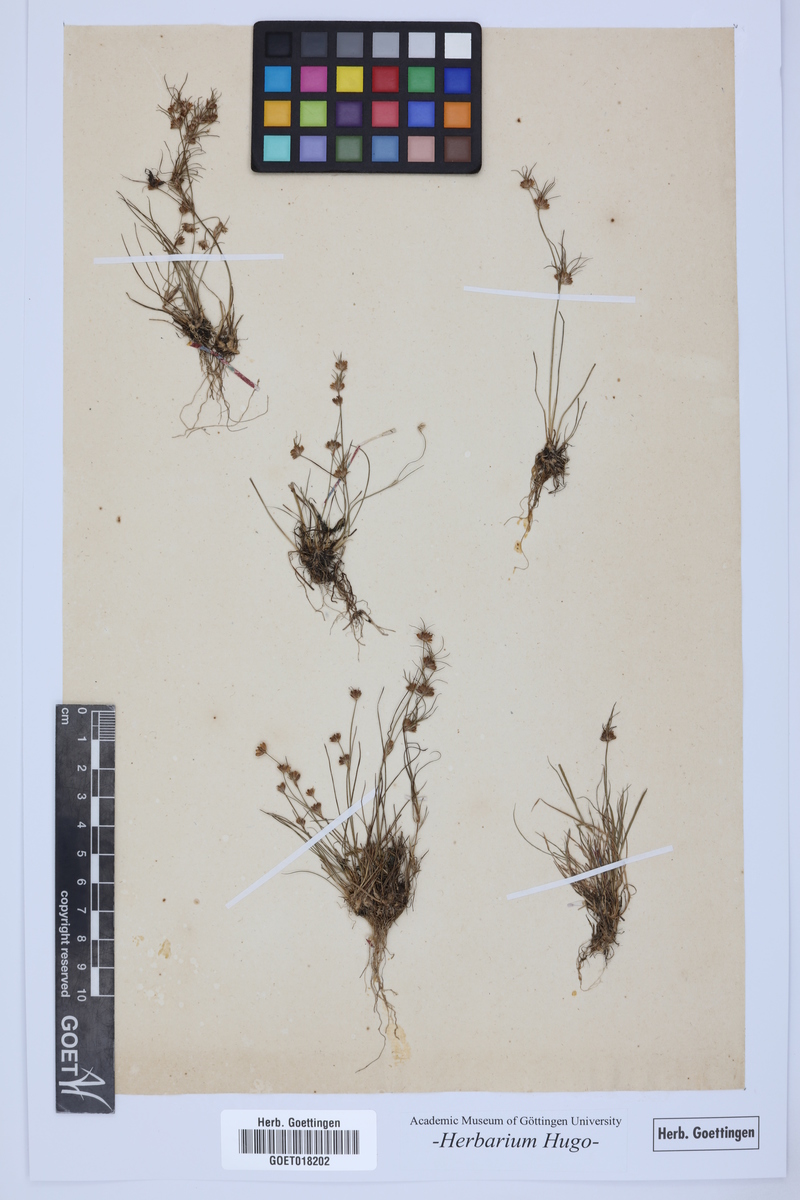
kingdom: Plantae
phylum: Tracheophyta
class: Liliopsida
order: Poales
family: Poaceae
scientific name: Poaceae
